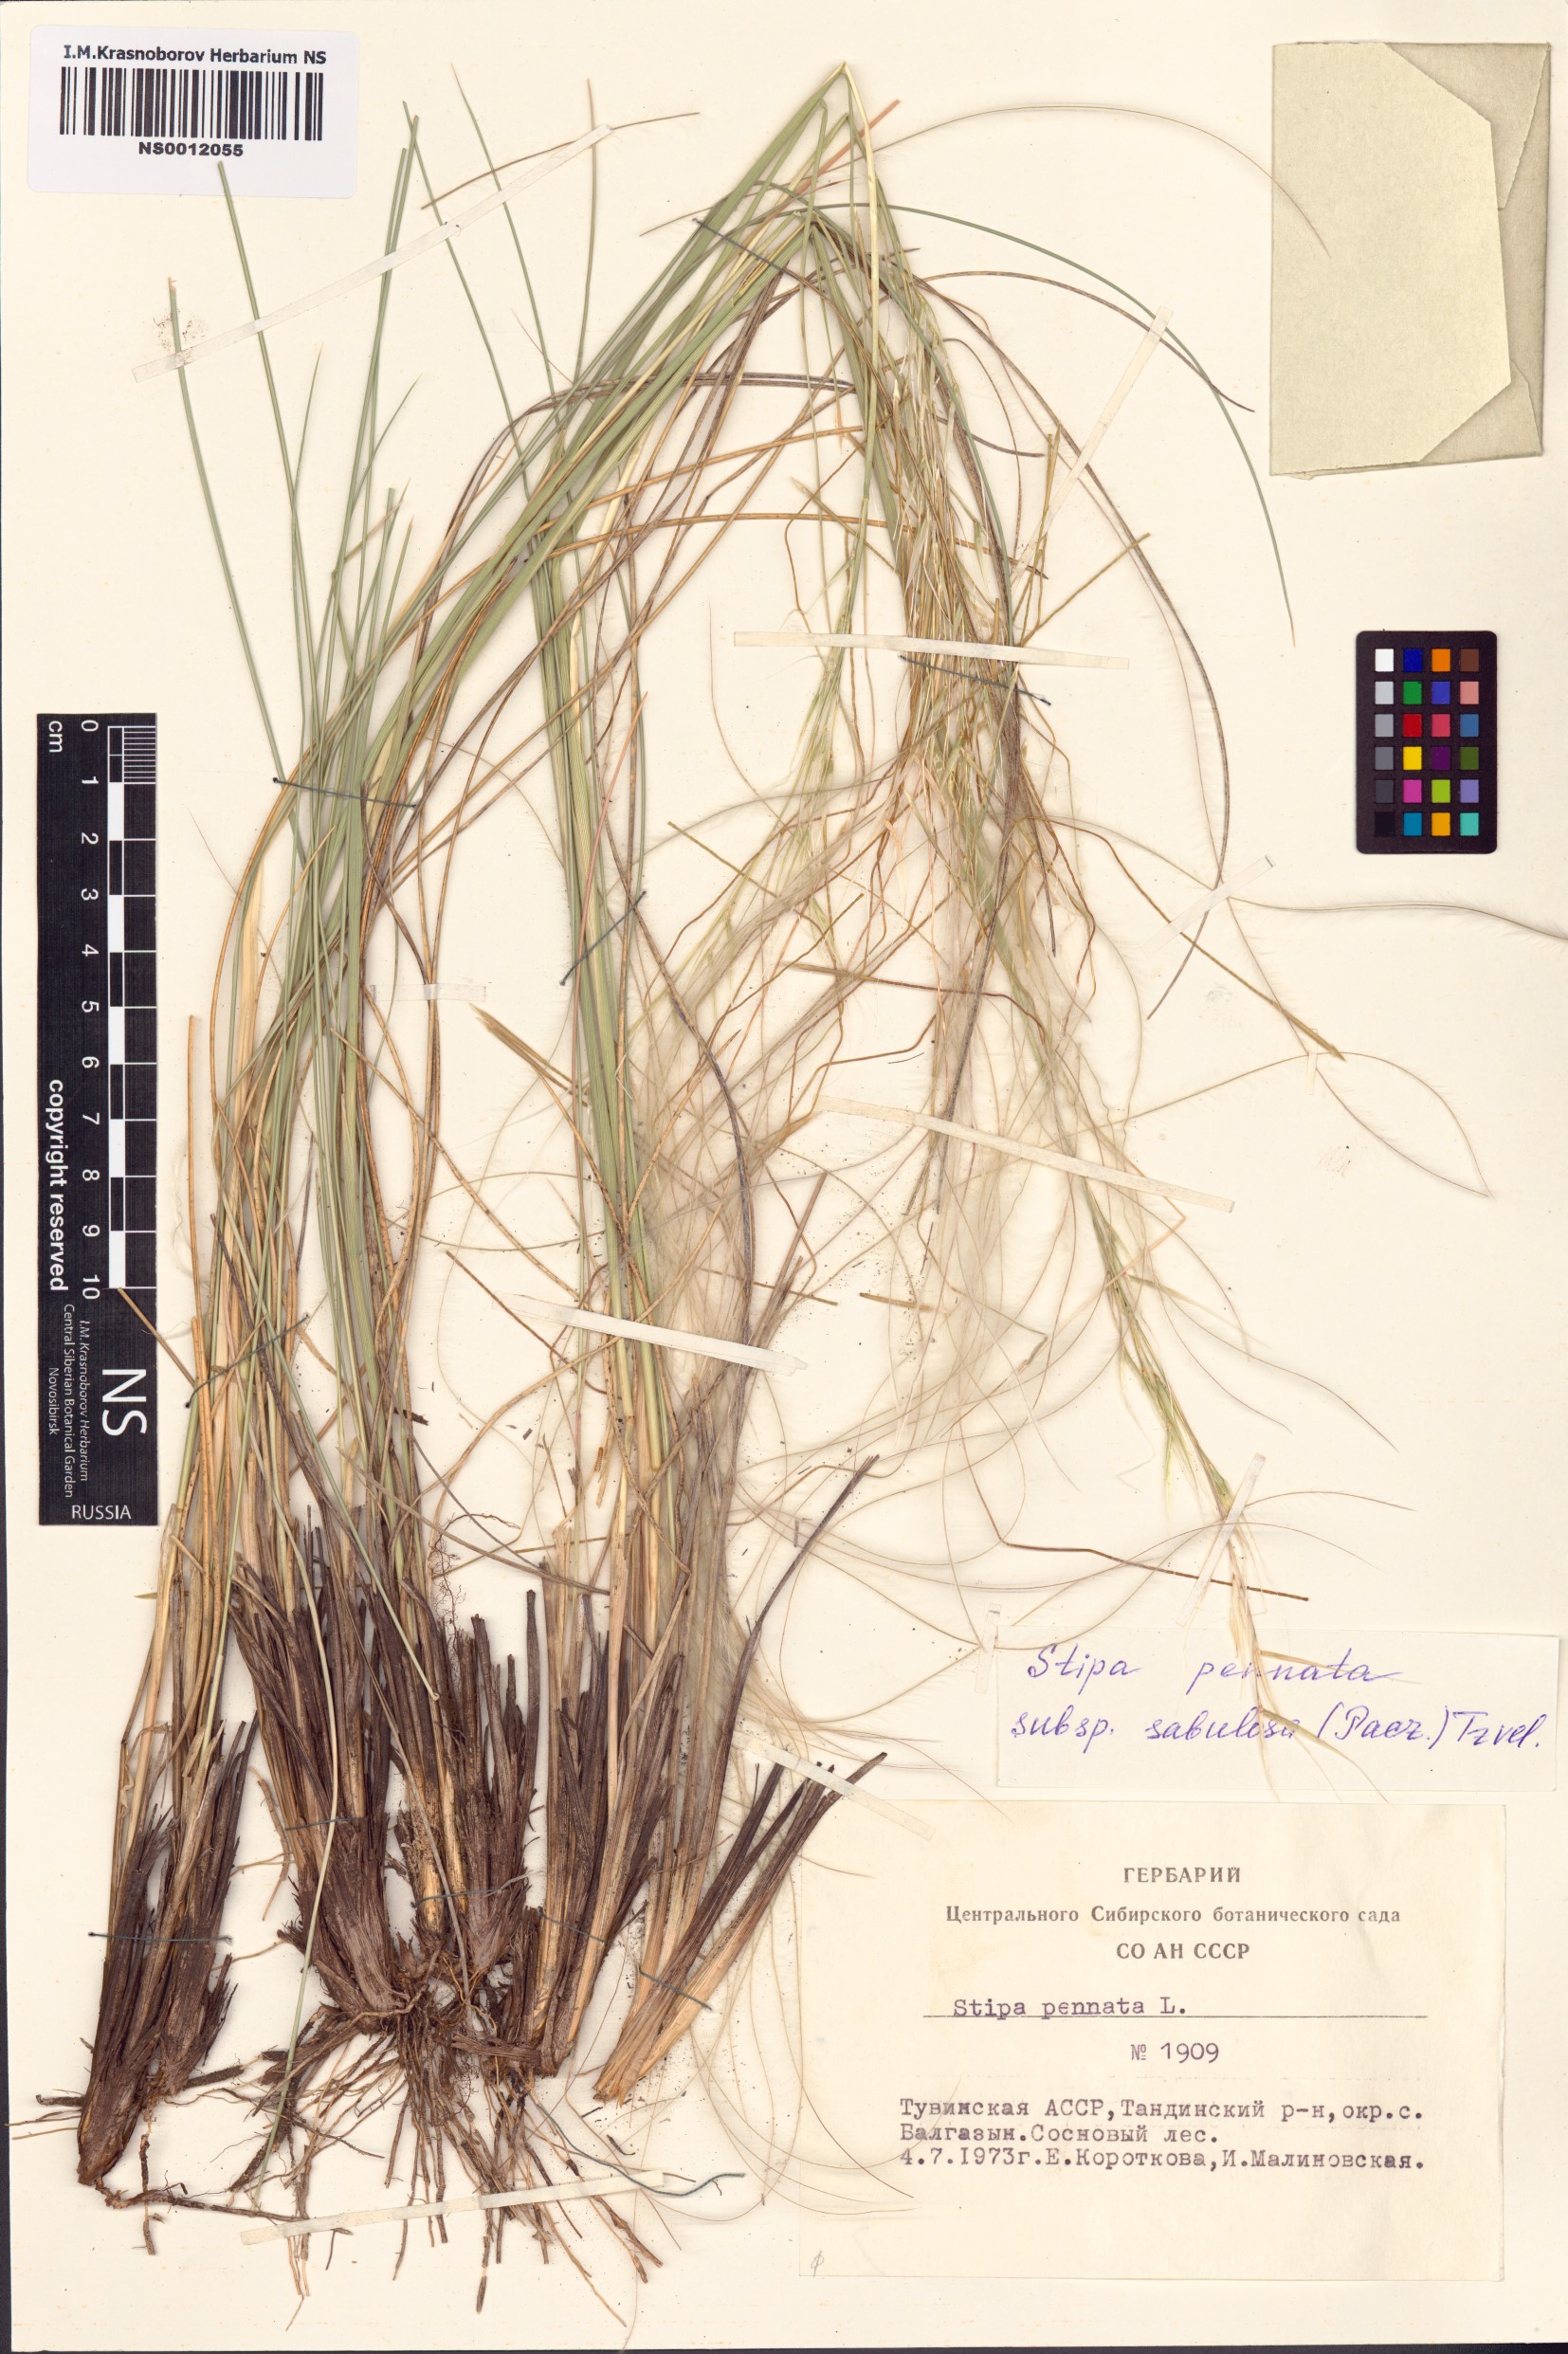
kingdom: Plantae
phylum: Tracheophyta
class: Liliopsida
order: Poales
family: Poaceae
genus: Stipa
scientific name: Stipa borysthenica
